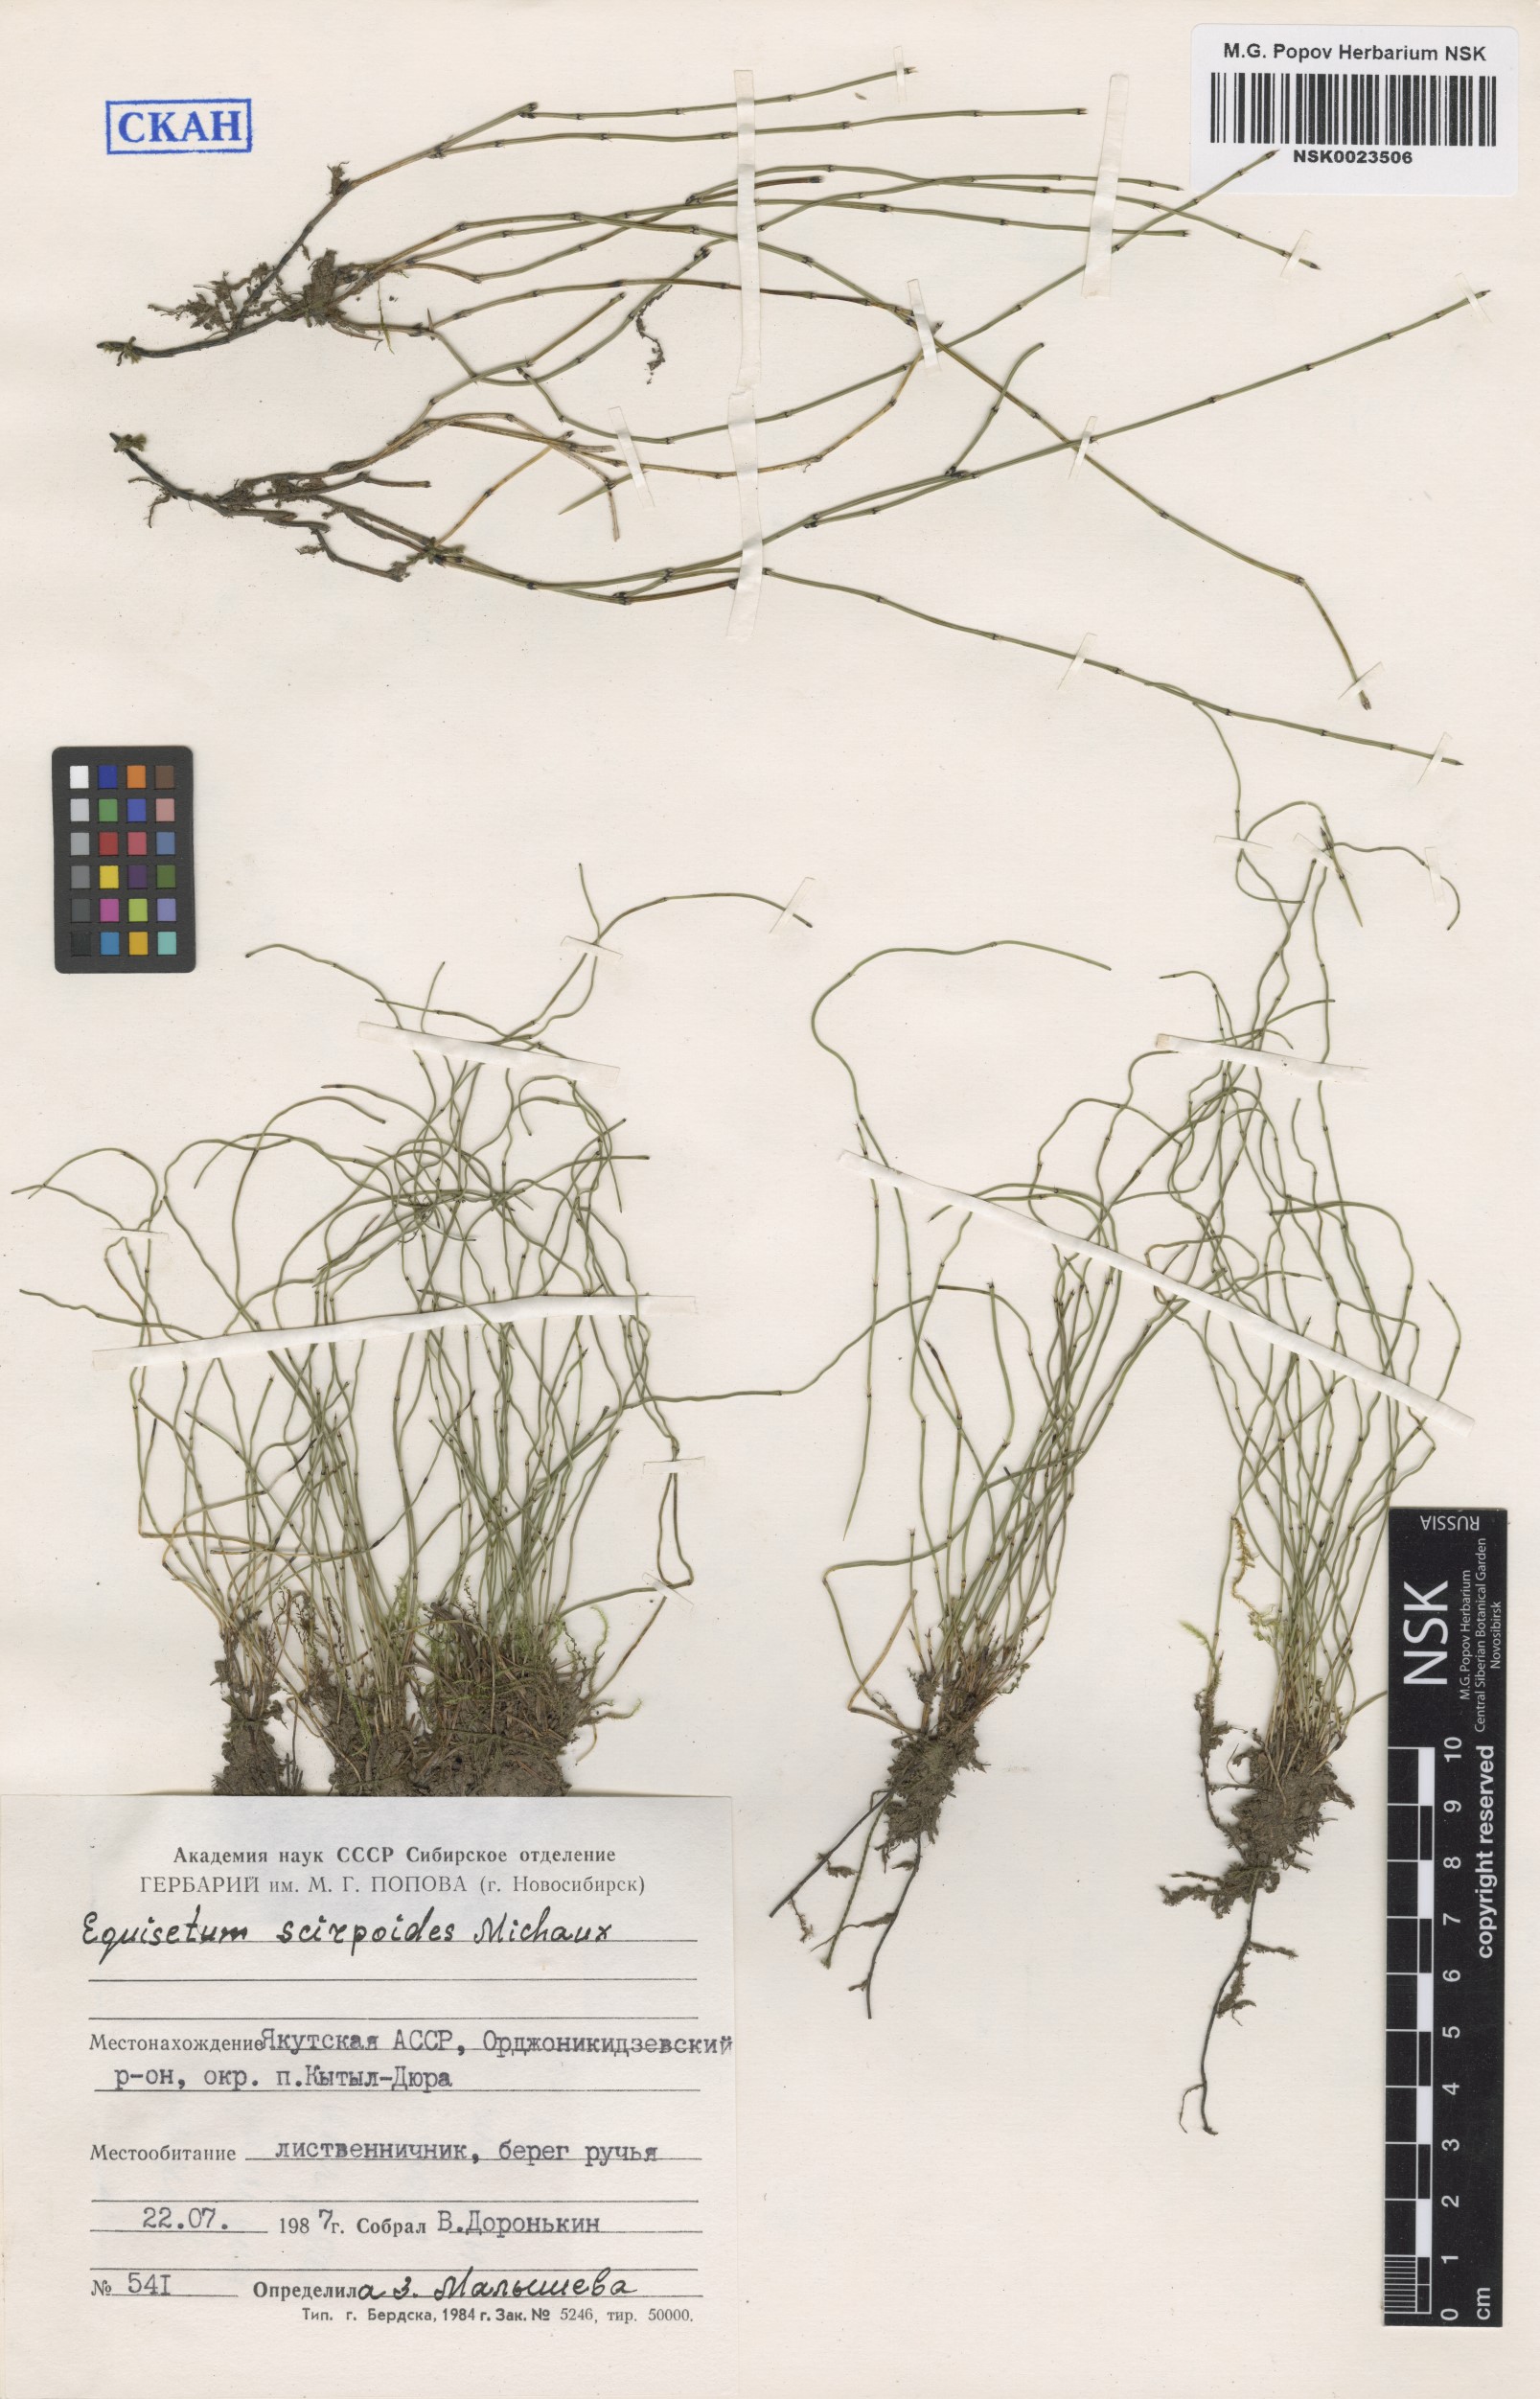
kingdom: Plantae
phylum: Tracheophyta
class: Polypodiopsida
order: Equisetales
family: Equisetaceae
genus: Equisetum
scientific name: Equisetum scirpoides
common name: Delicate horsetail
